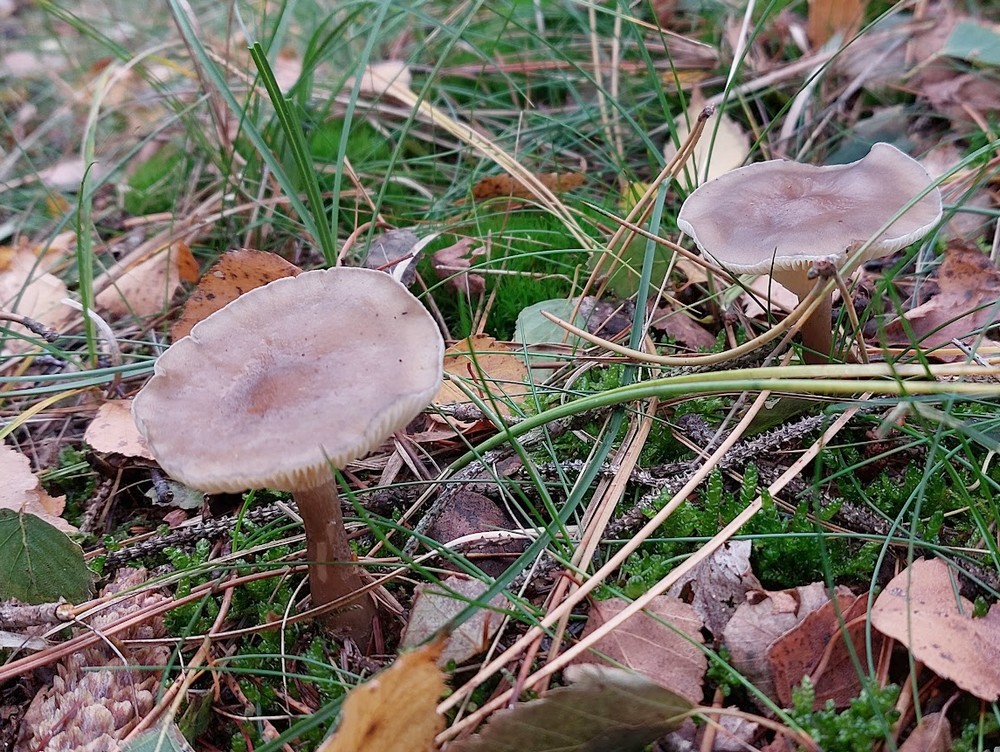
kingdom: Fungi
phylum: Basidiomycota
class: Agaricomycetes
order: Agaricales
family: Hygrophoraceae
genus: Ampulloclitocybe
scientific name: Ampulloclitocybe clavipes
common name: køllefod
